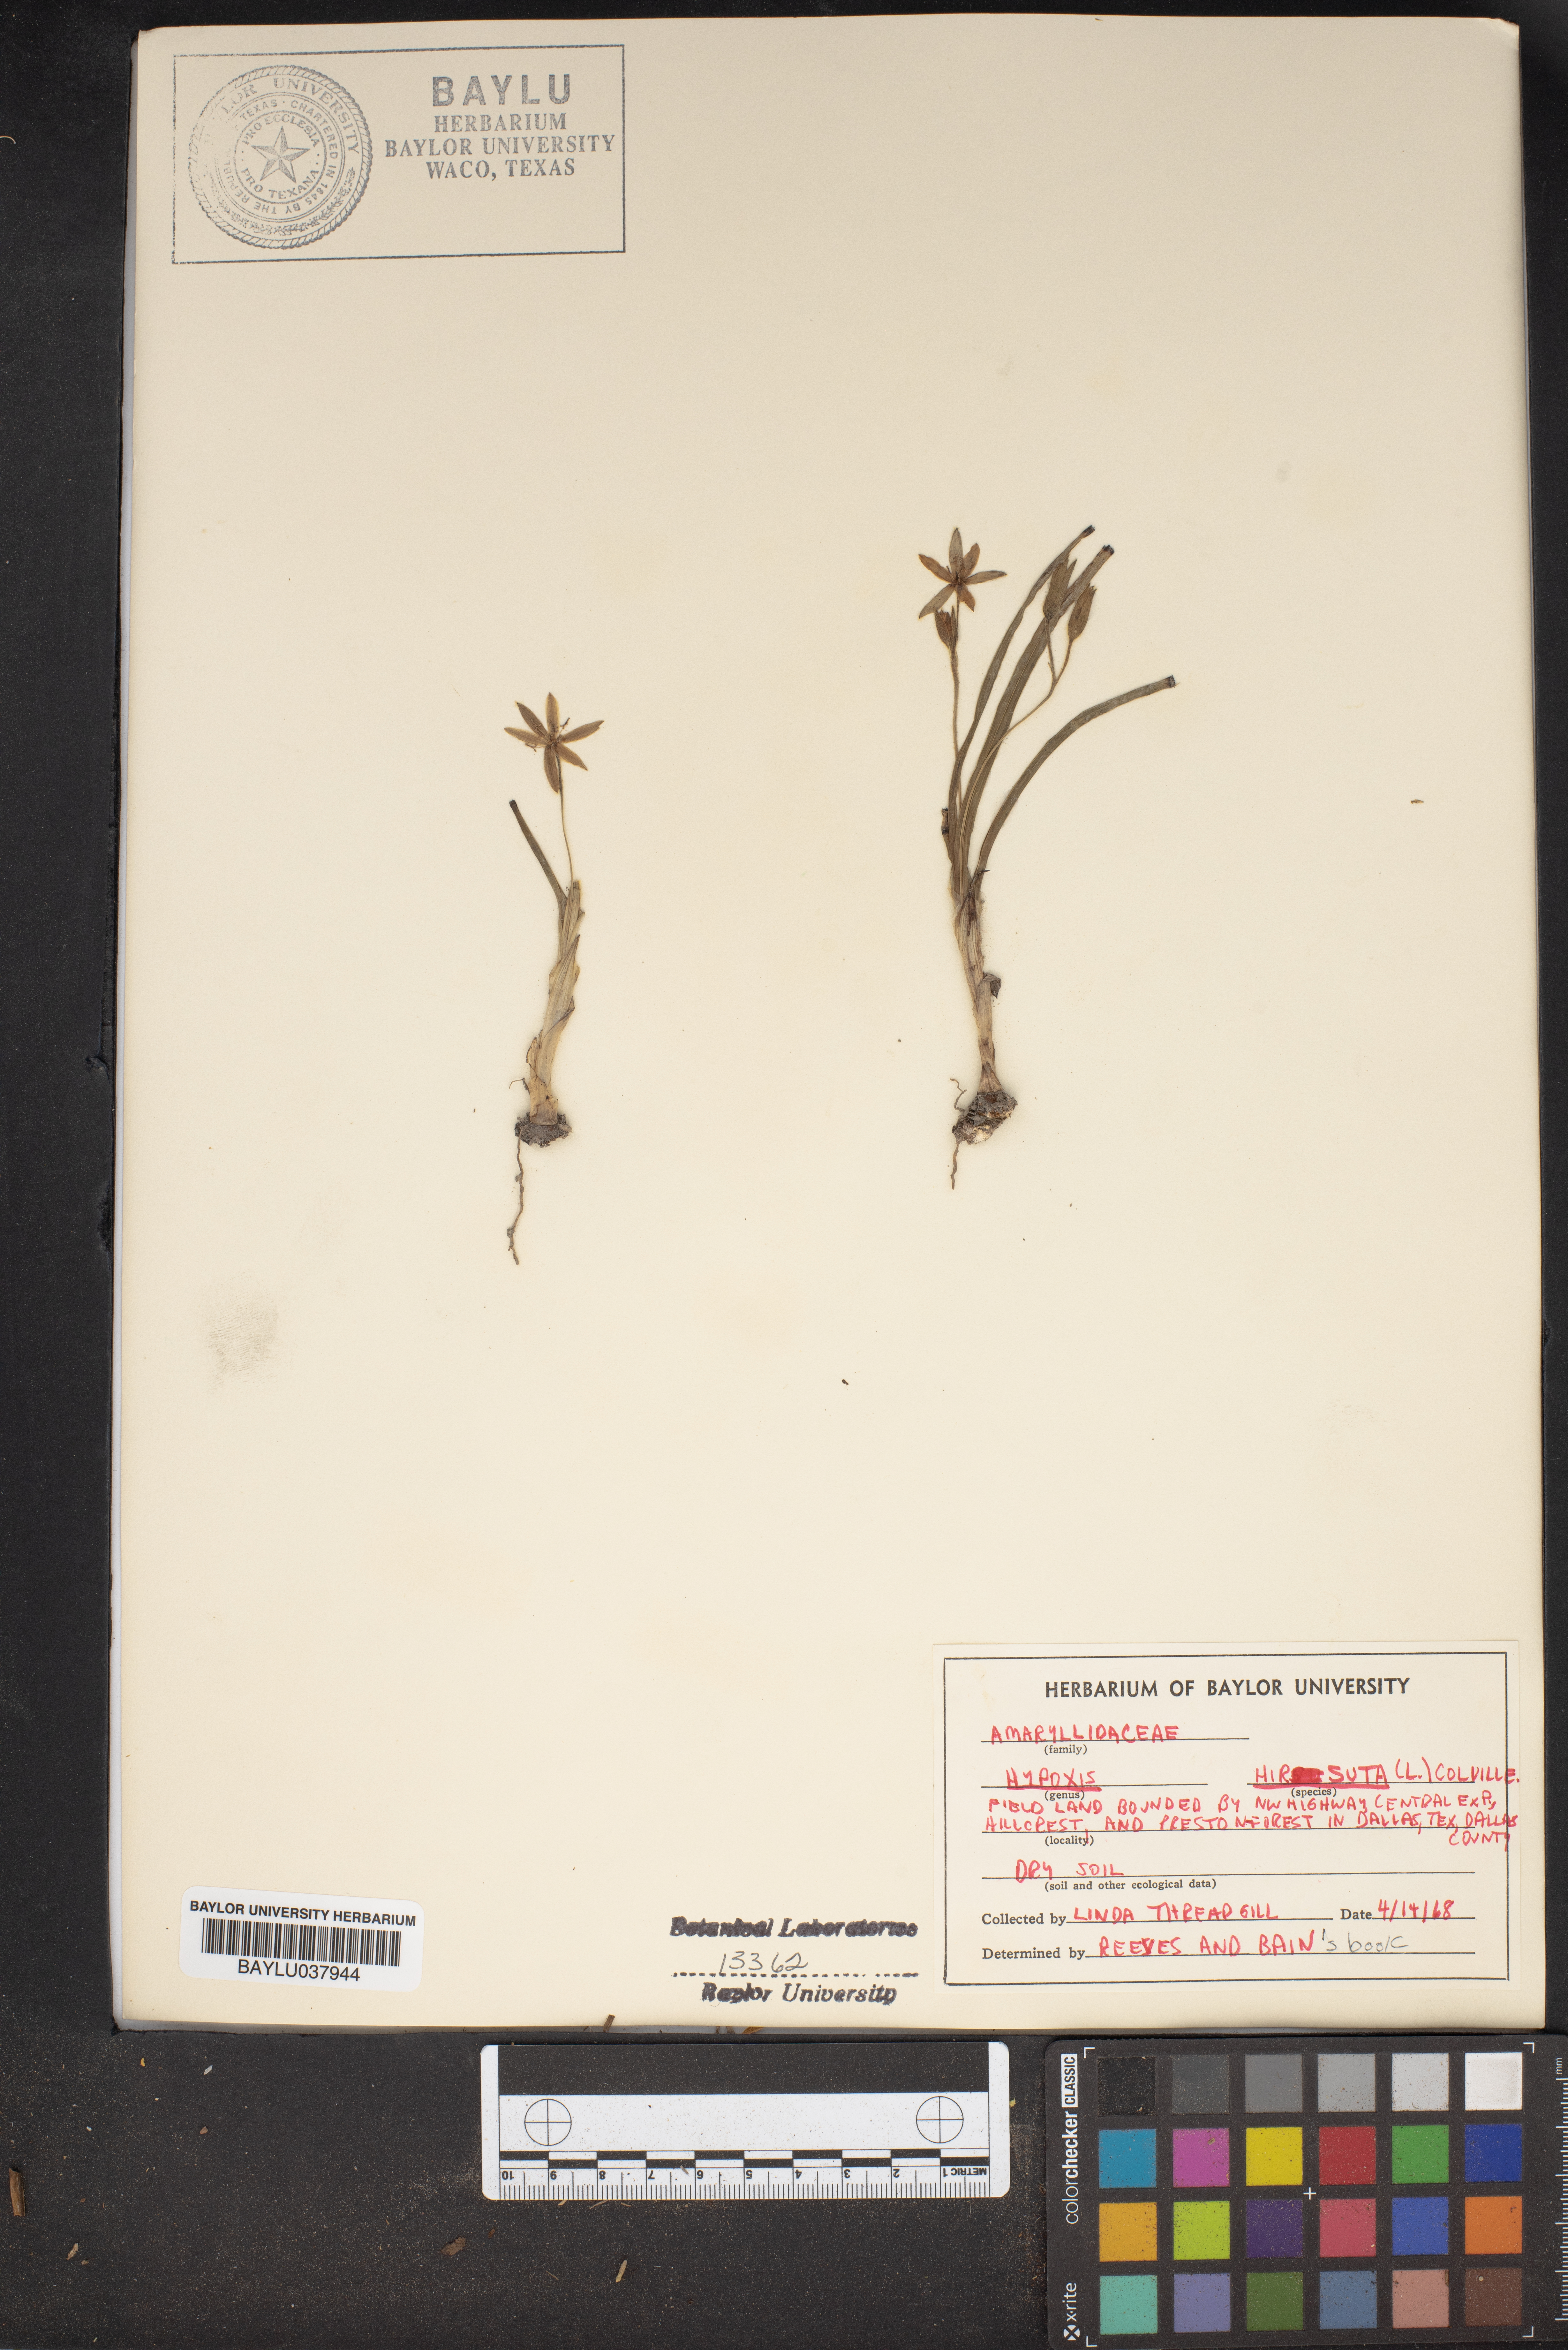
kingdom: Plantae
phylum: Tracheophyta
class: Liliopsida
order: Asparagales
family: Hypoxidaceae
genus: Hypoxis
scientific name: Hypoxis hirsuta
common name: Common goldstar
